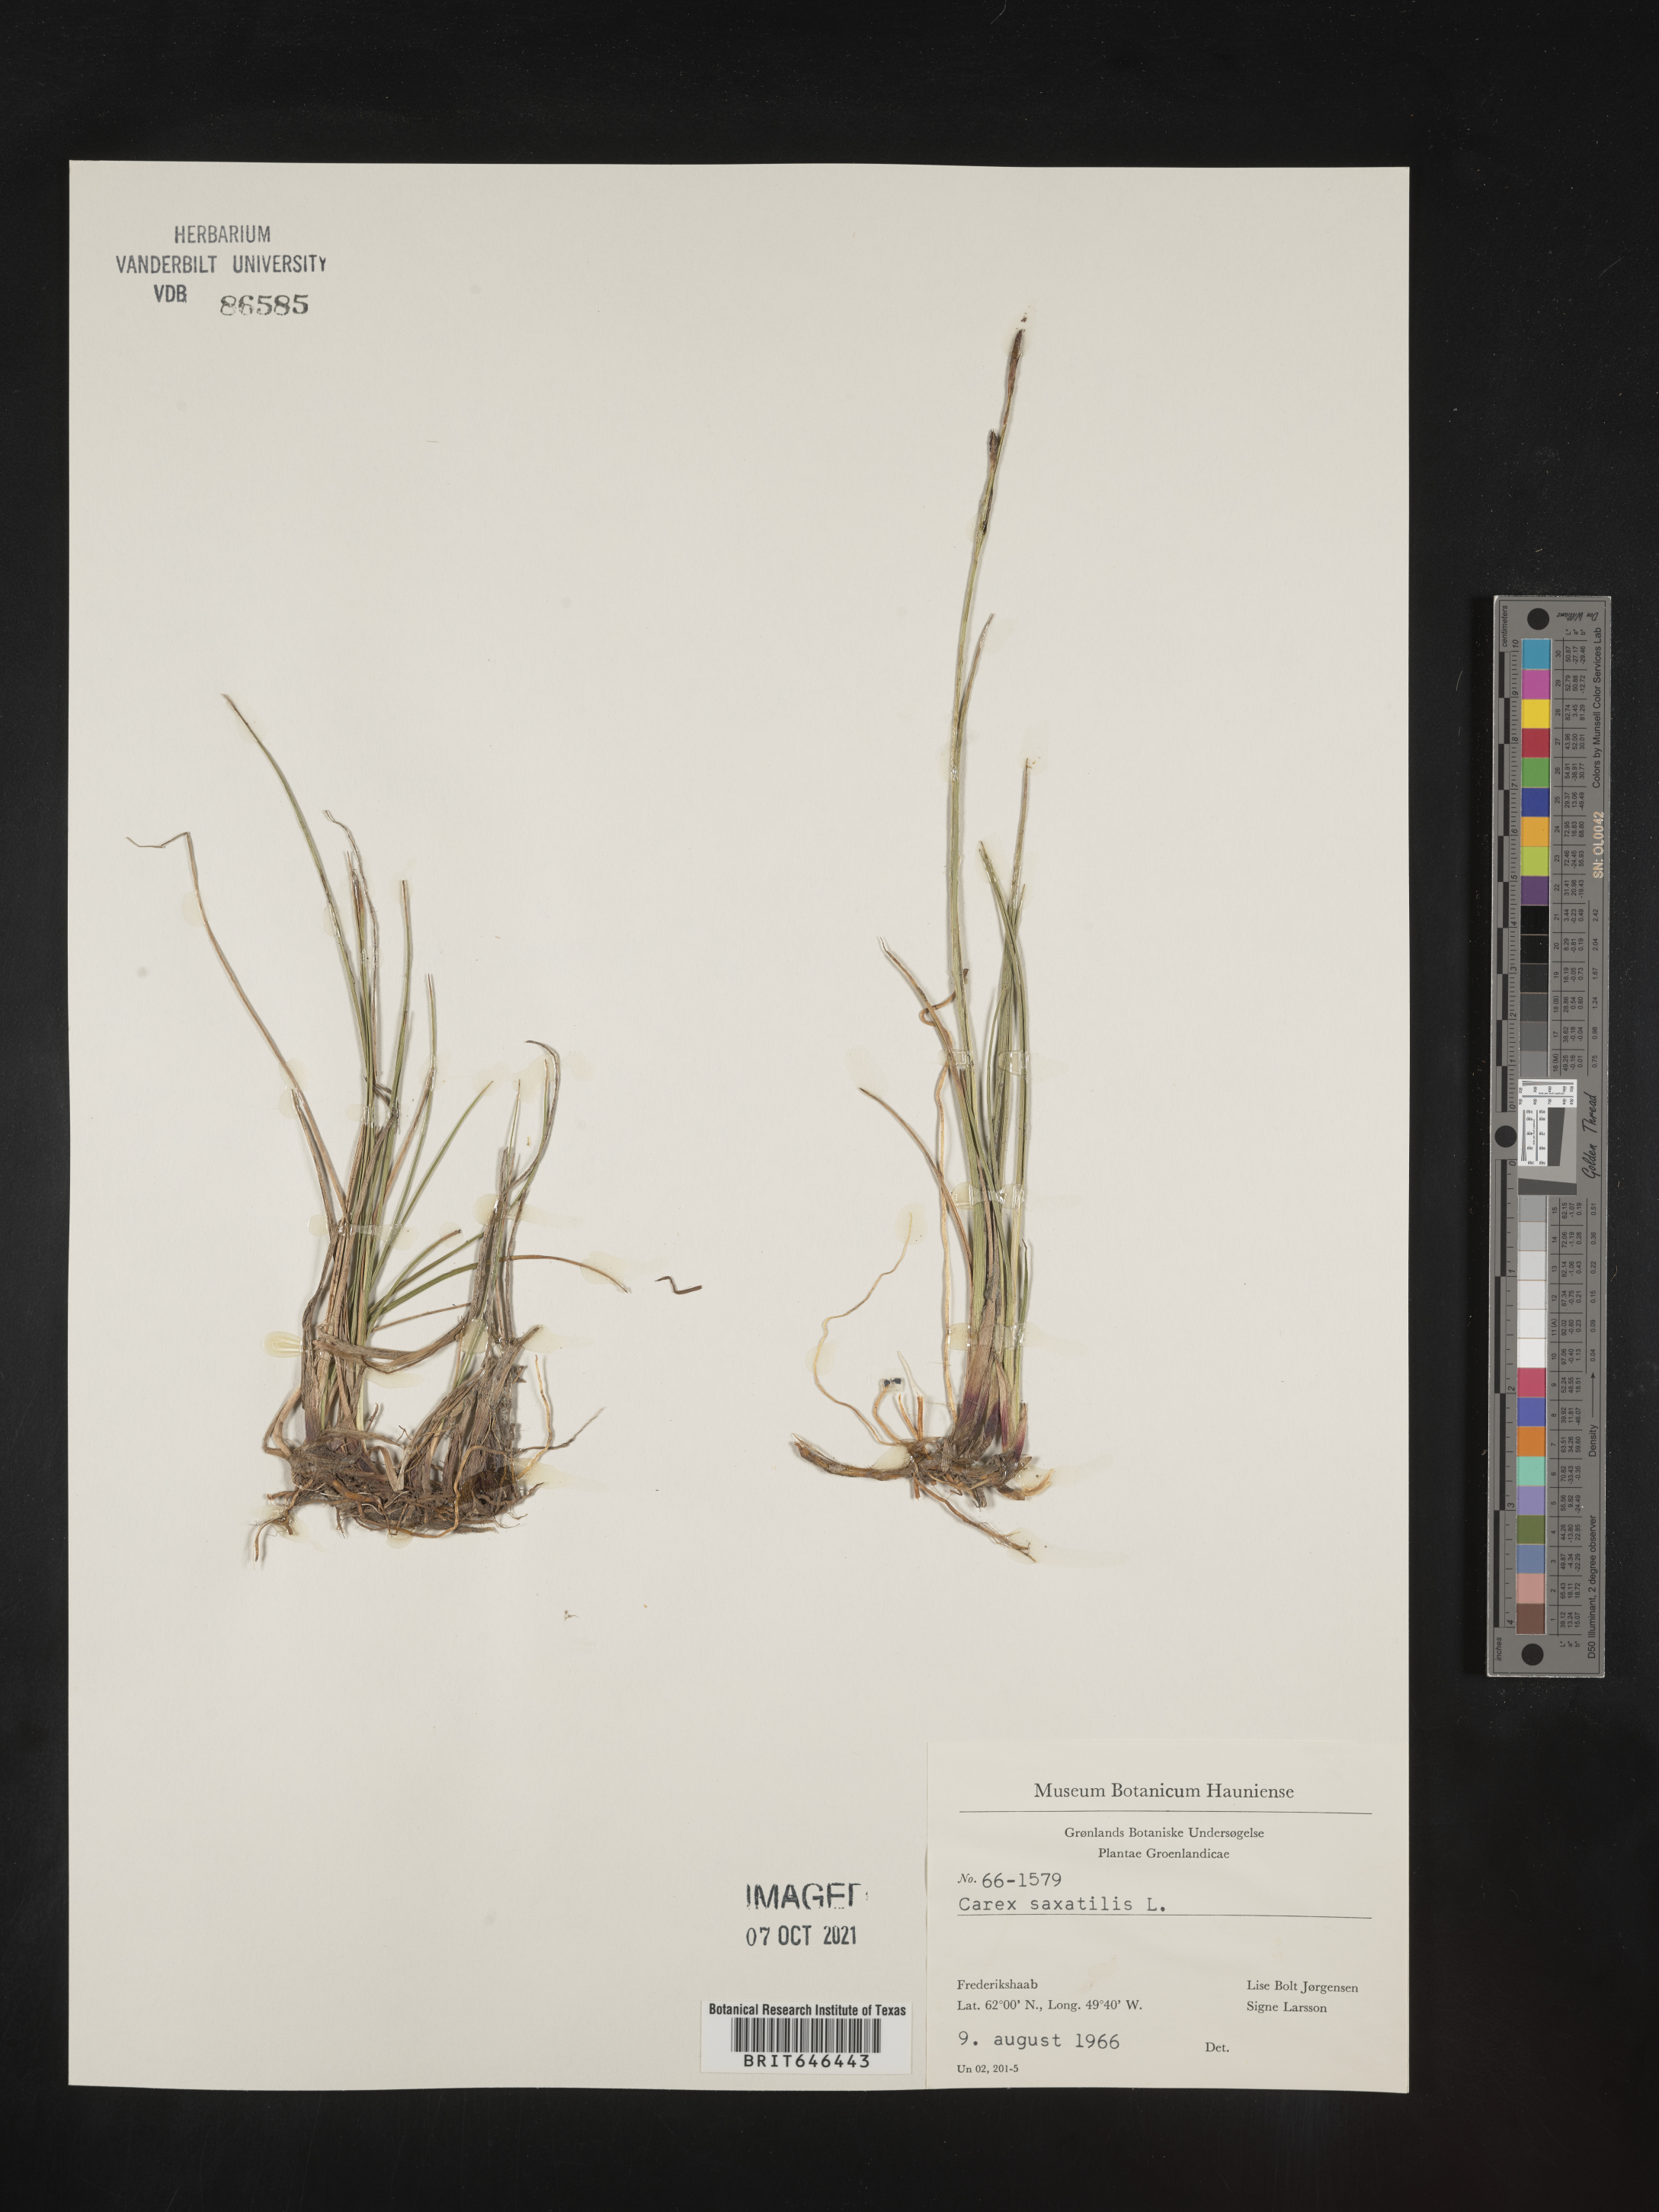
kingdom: Plantae
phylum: Tracheophyta
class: Liliopsida
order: Poales
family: Cyperaceae
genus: Carex
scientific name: Carex saxatilis
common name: Russet sedge
